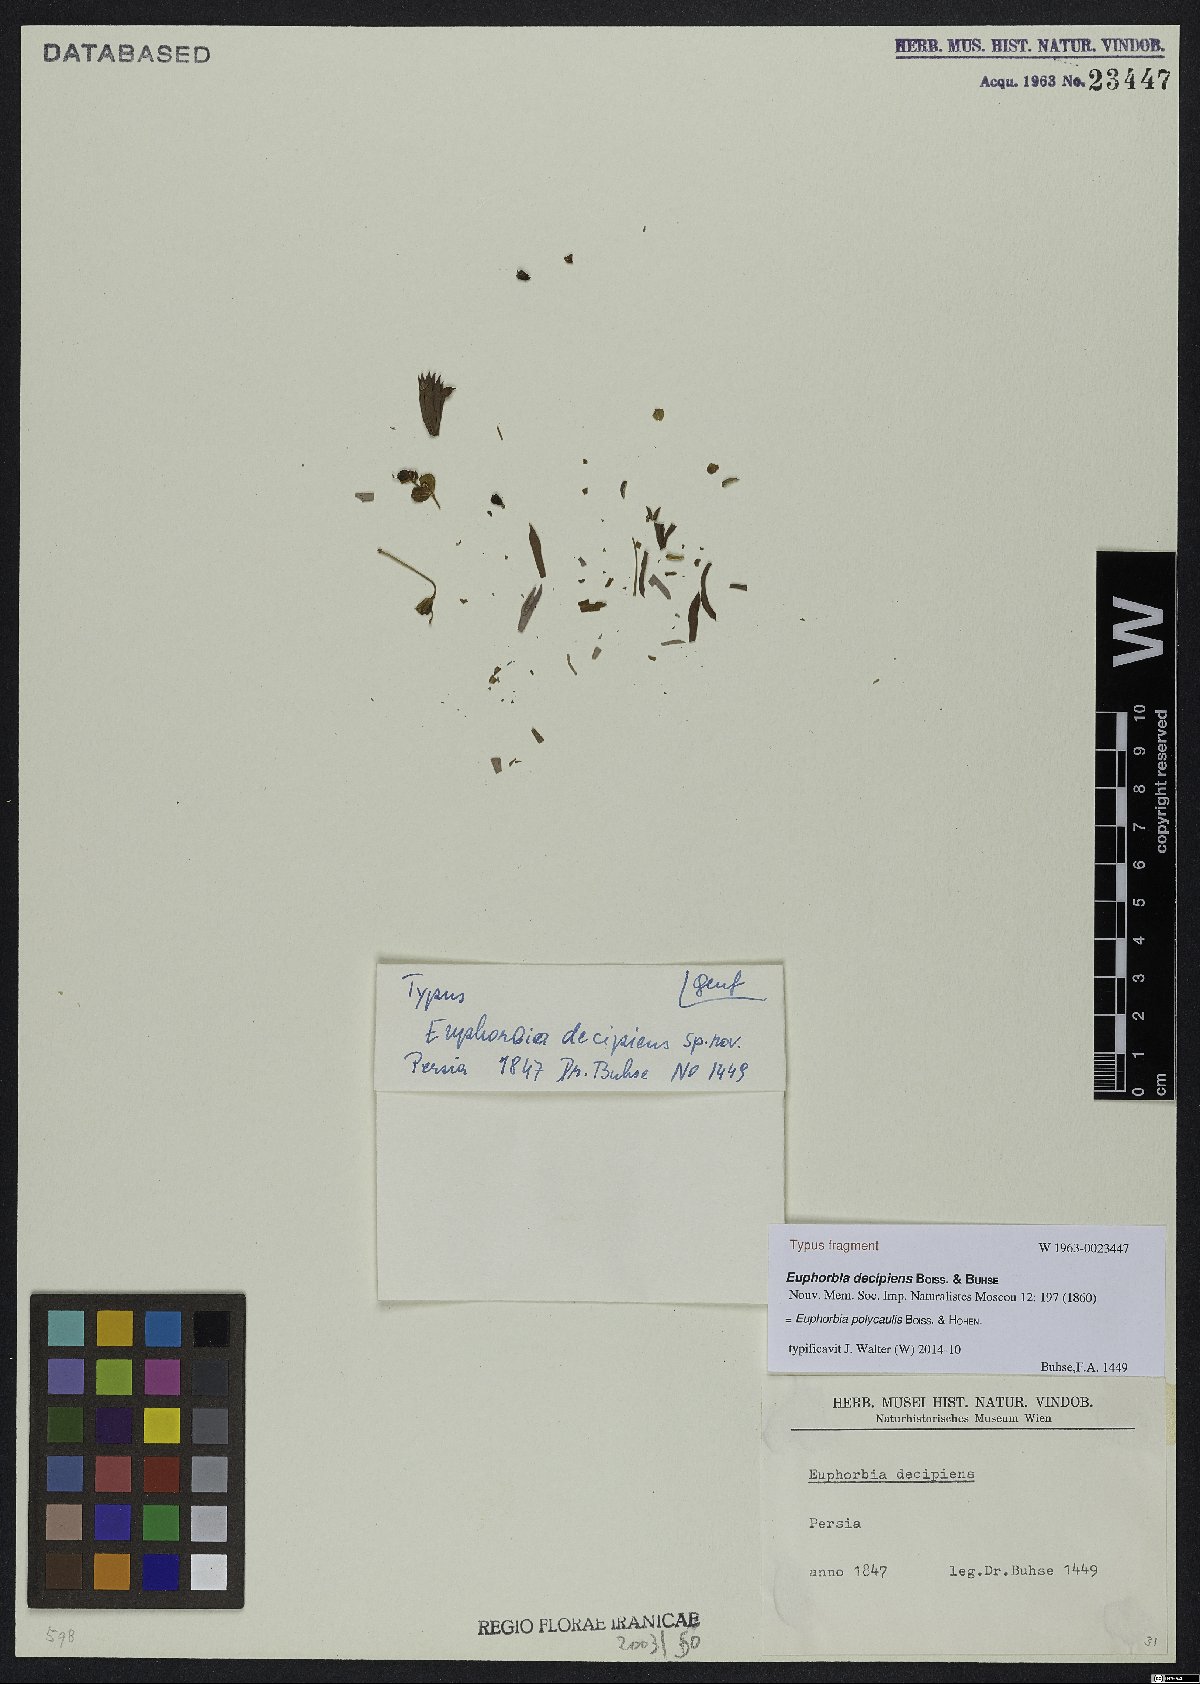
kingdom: Plantae
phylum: Tracheophyta
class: Magnoliopsida
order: Malpighiales
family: Euphorbiaceae
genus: Euphorbia
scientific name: Euphorbia polycaulis
